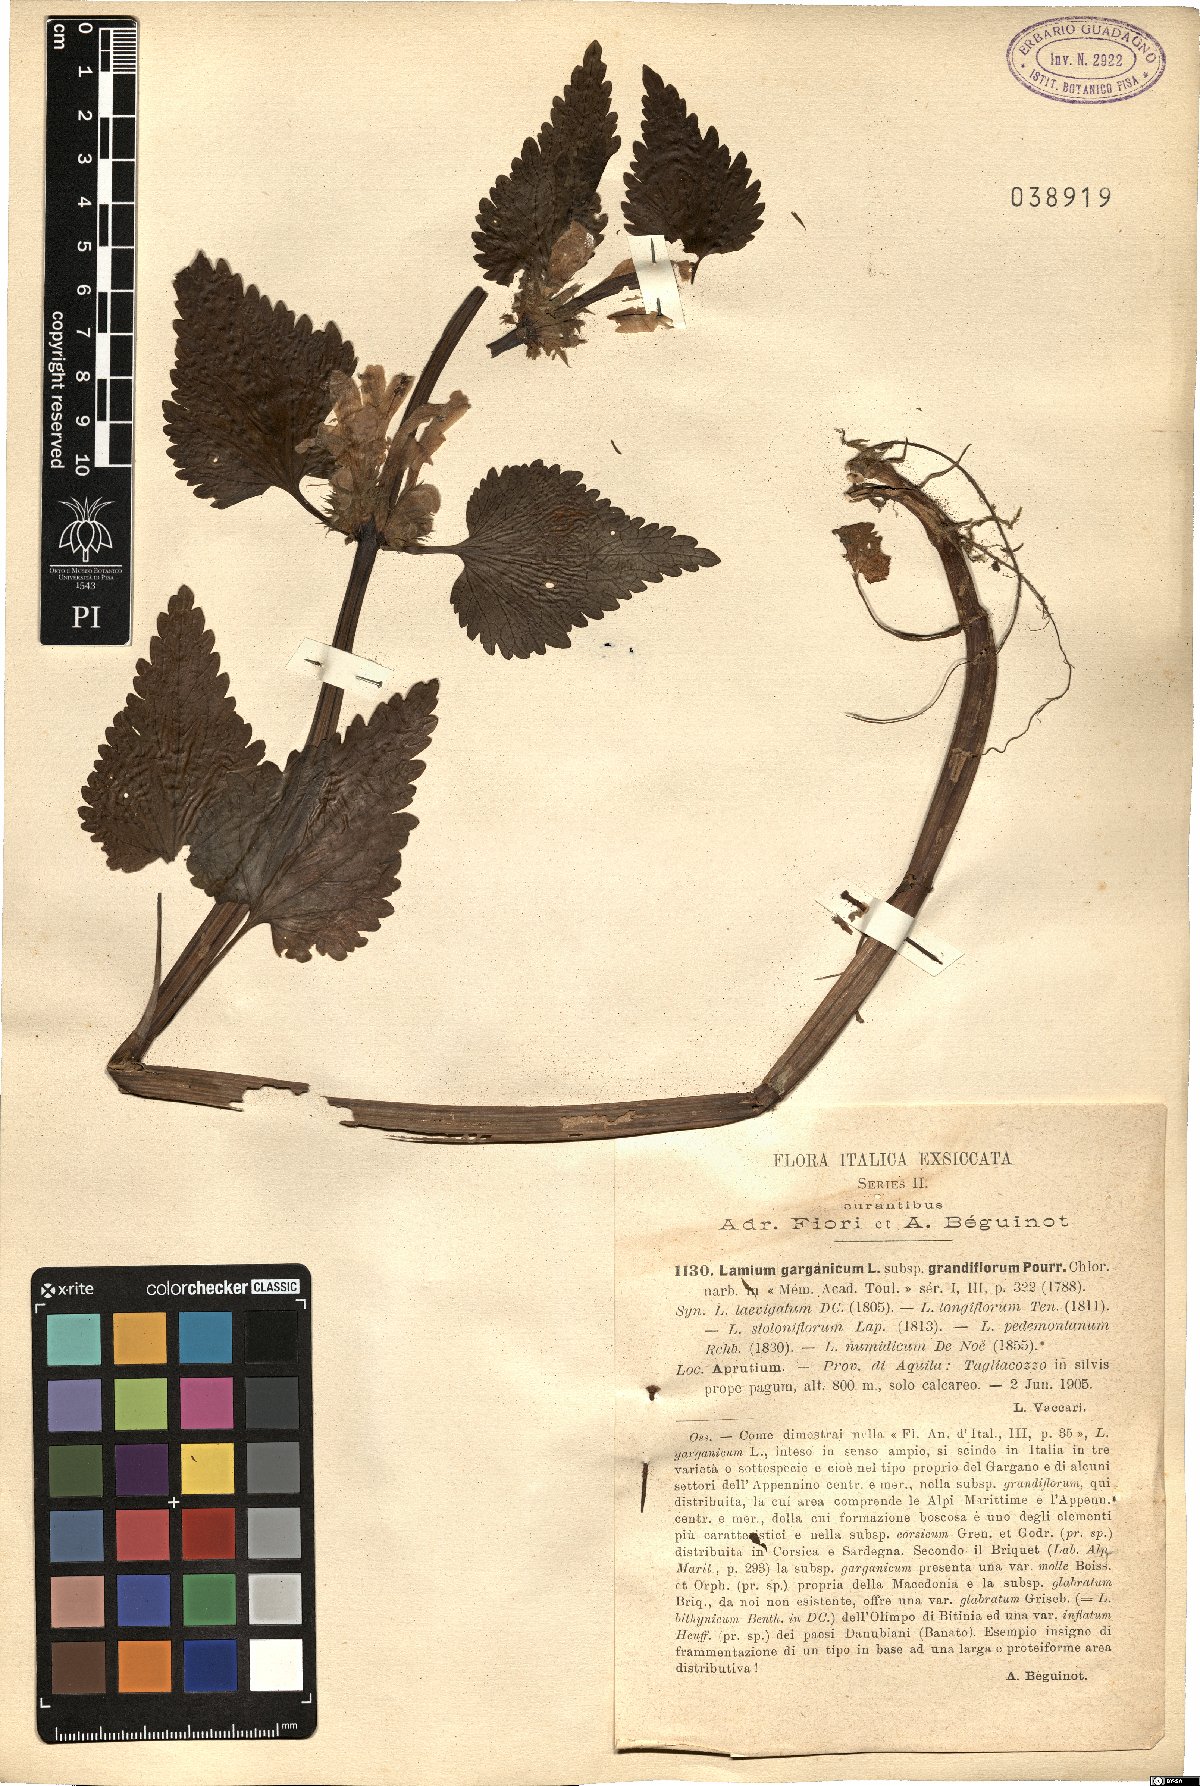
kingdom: Plantae
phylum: Tracheophyta
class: Magnoliopsida
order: Lamiales
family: Lamiaceae
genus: Lamium
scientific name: Lamium garganicum
